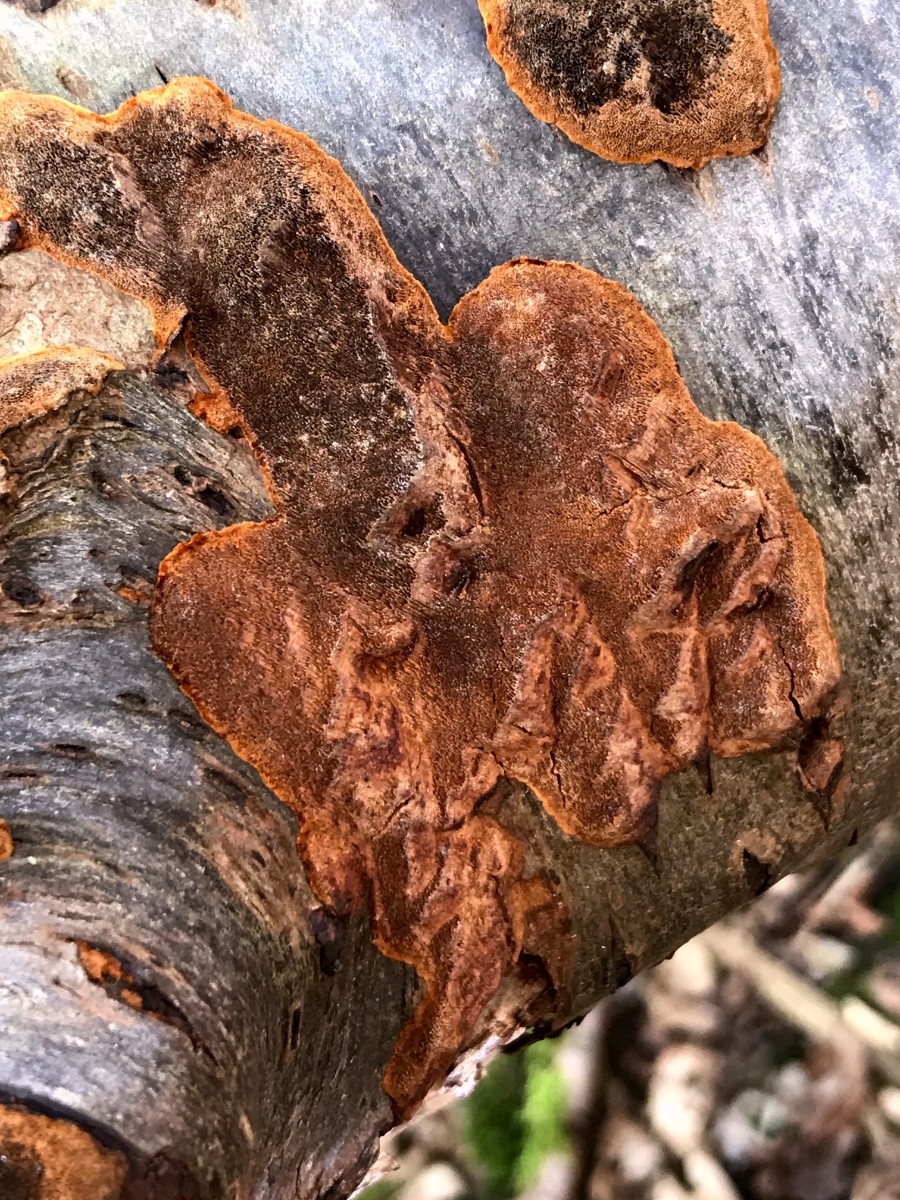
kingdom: Fungi
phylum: Basidiomycota
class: Agaricomycetes
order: Hymenochaetales
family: Hymenochaetaceae
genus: Fuscoporia
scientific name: Fuscoporia ferrea
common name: skorpe-ildporesvamp
